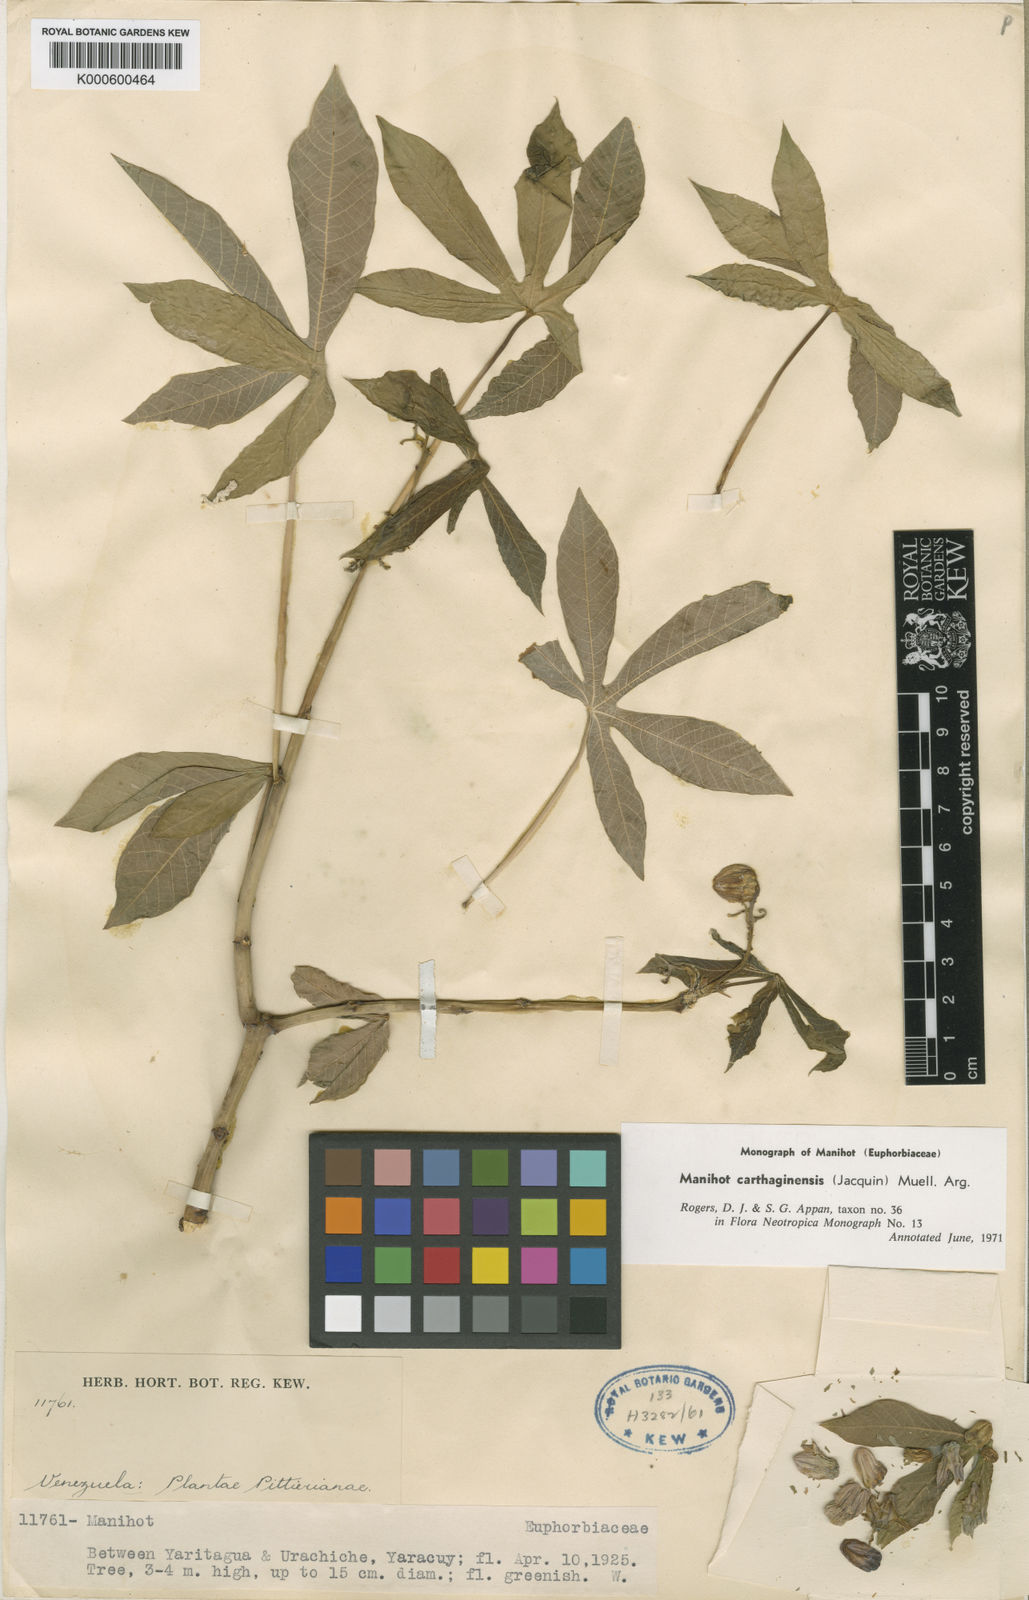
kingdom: Plantae
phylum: Tracheophyta
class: Magnoliopsida
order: Malpighiales
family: Euphorbiaceae
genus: Manihot
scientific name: Manihot
